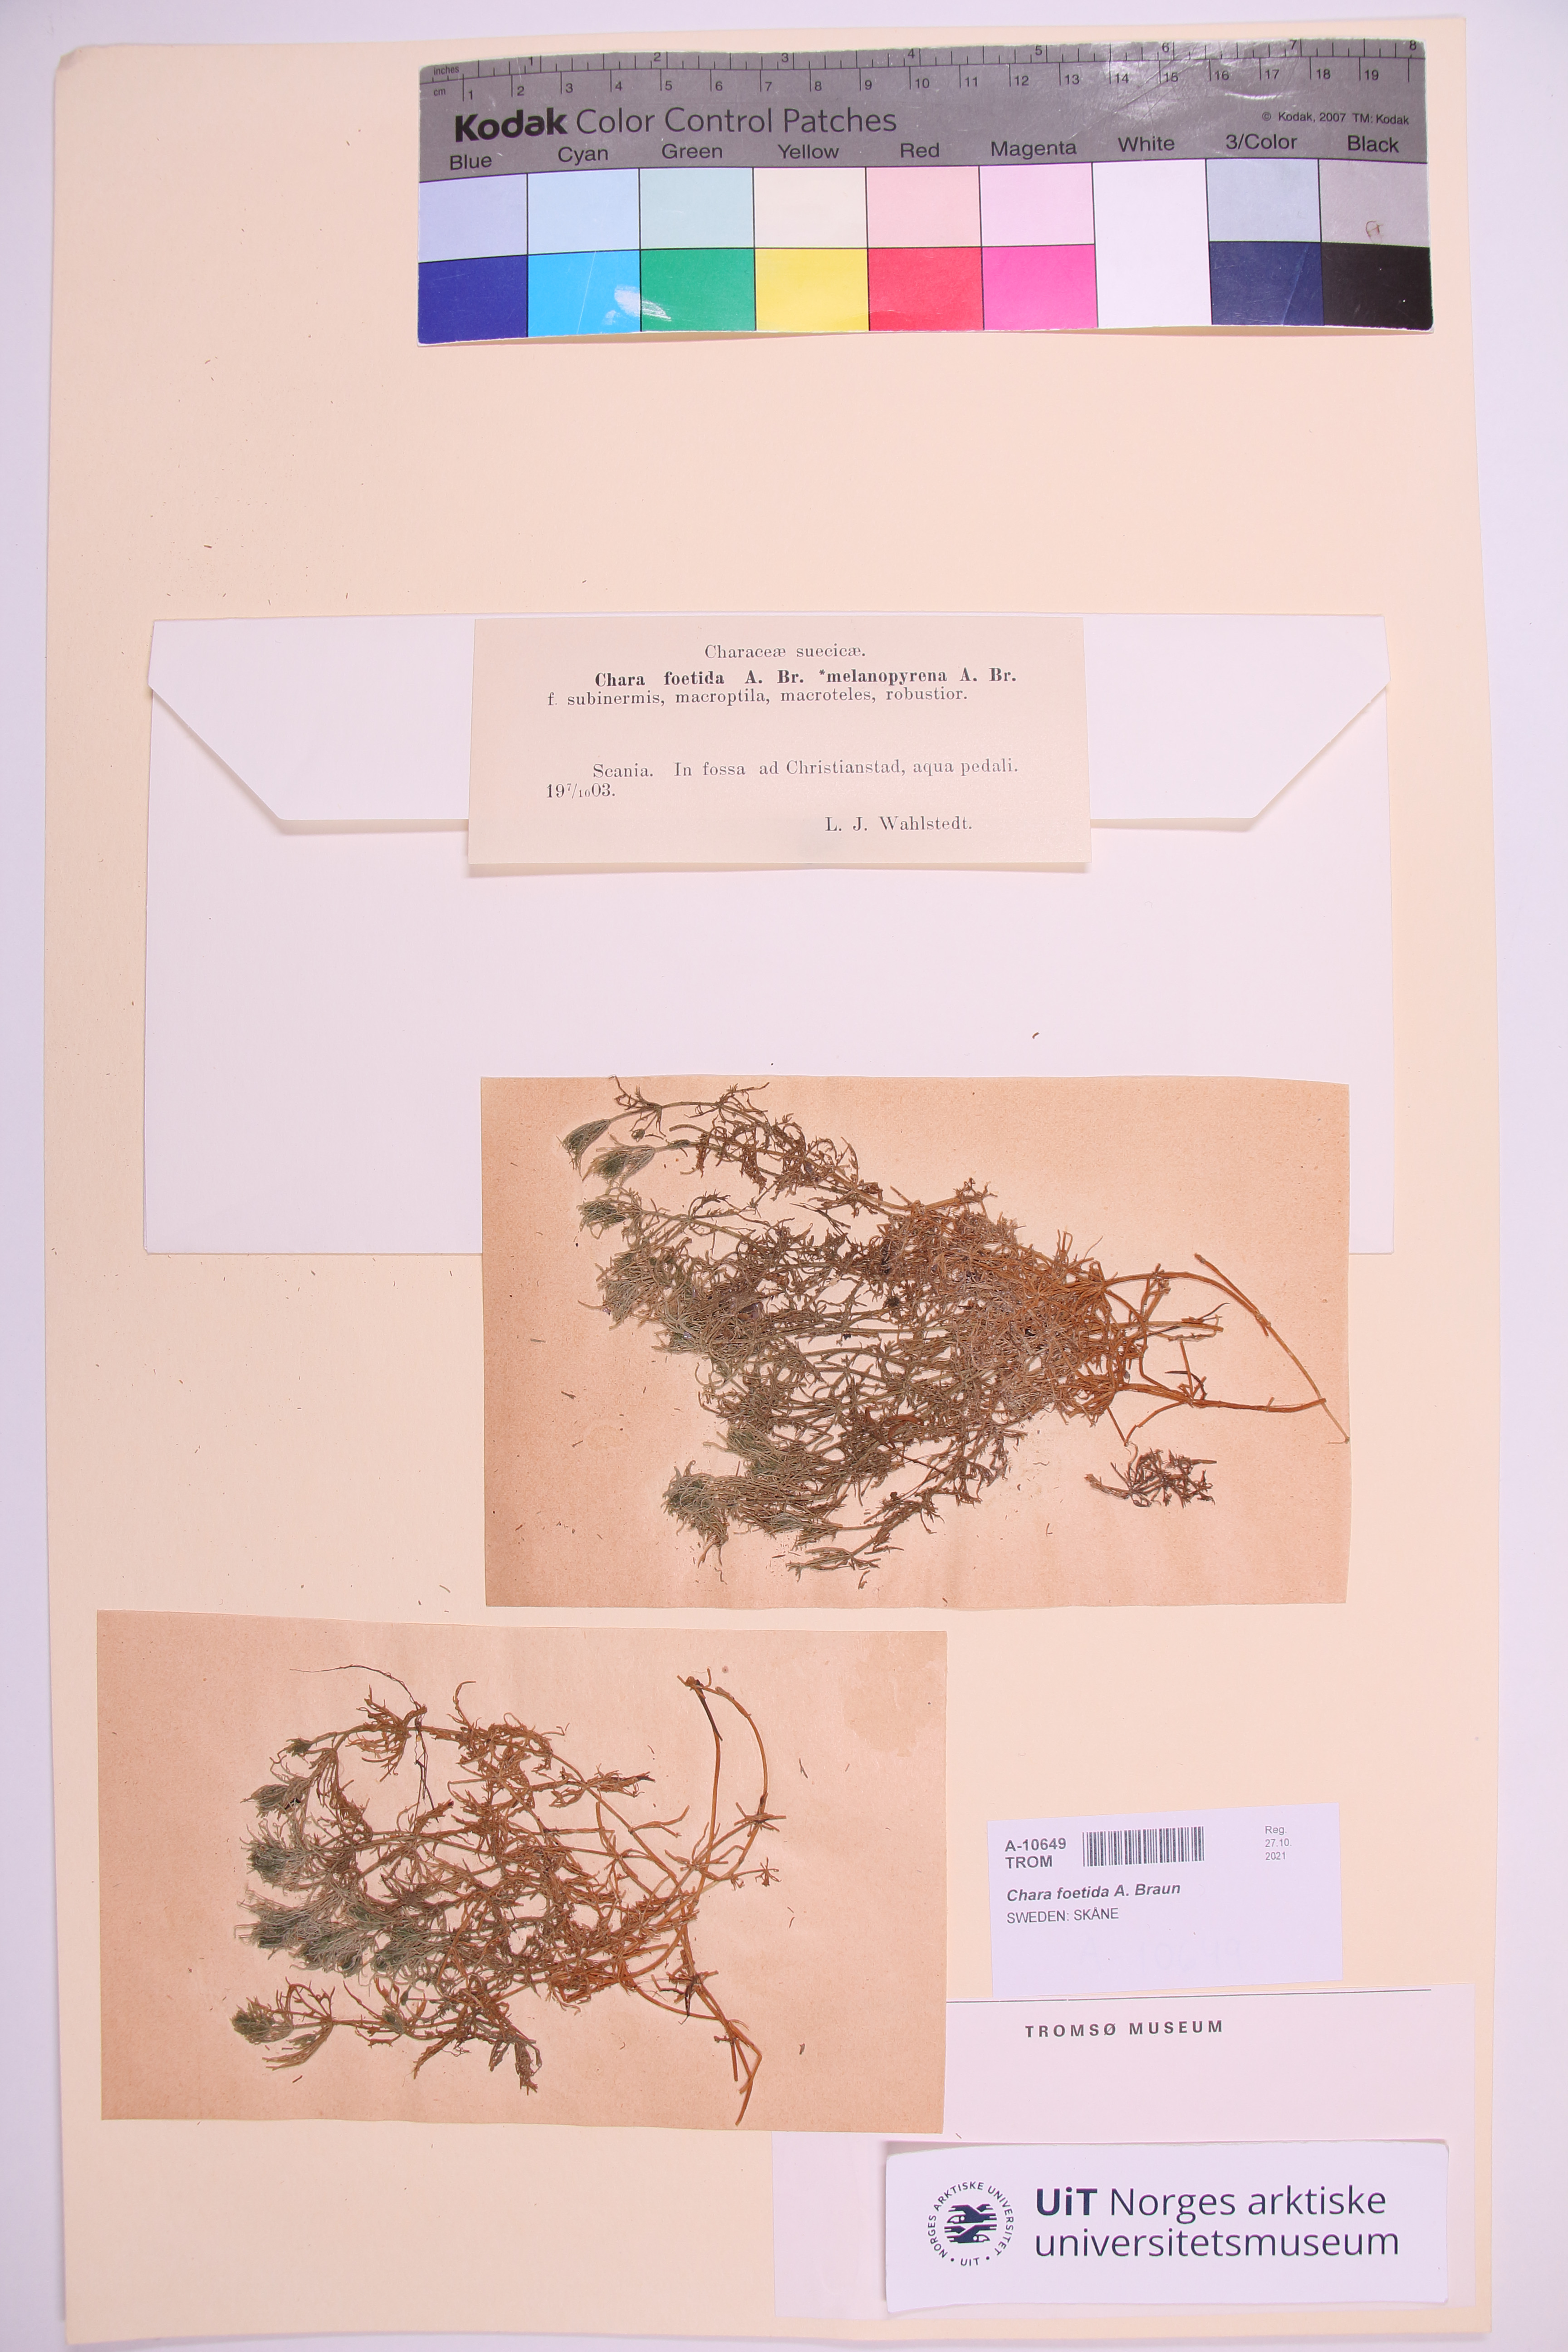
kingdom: Plantae
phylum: Charophyta
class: Charophyceae
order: Charales
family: Characeae
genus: Chara
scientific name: Chara vulgaris
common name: Common stonewort
